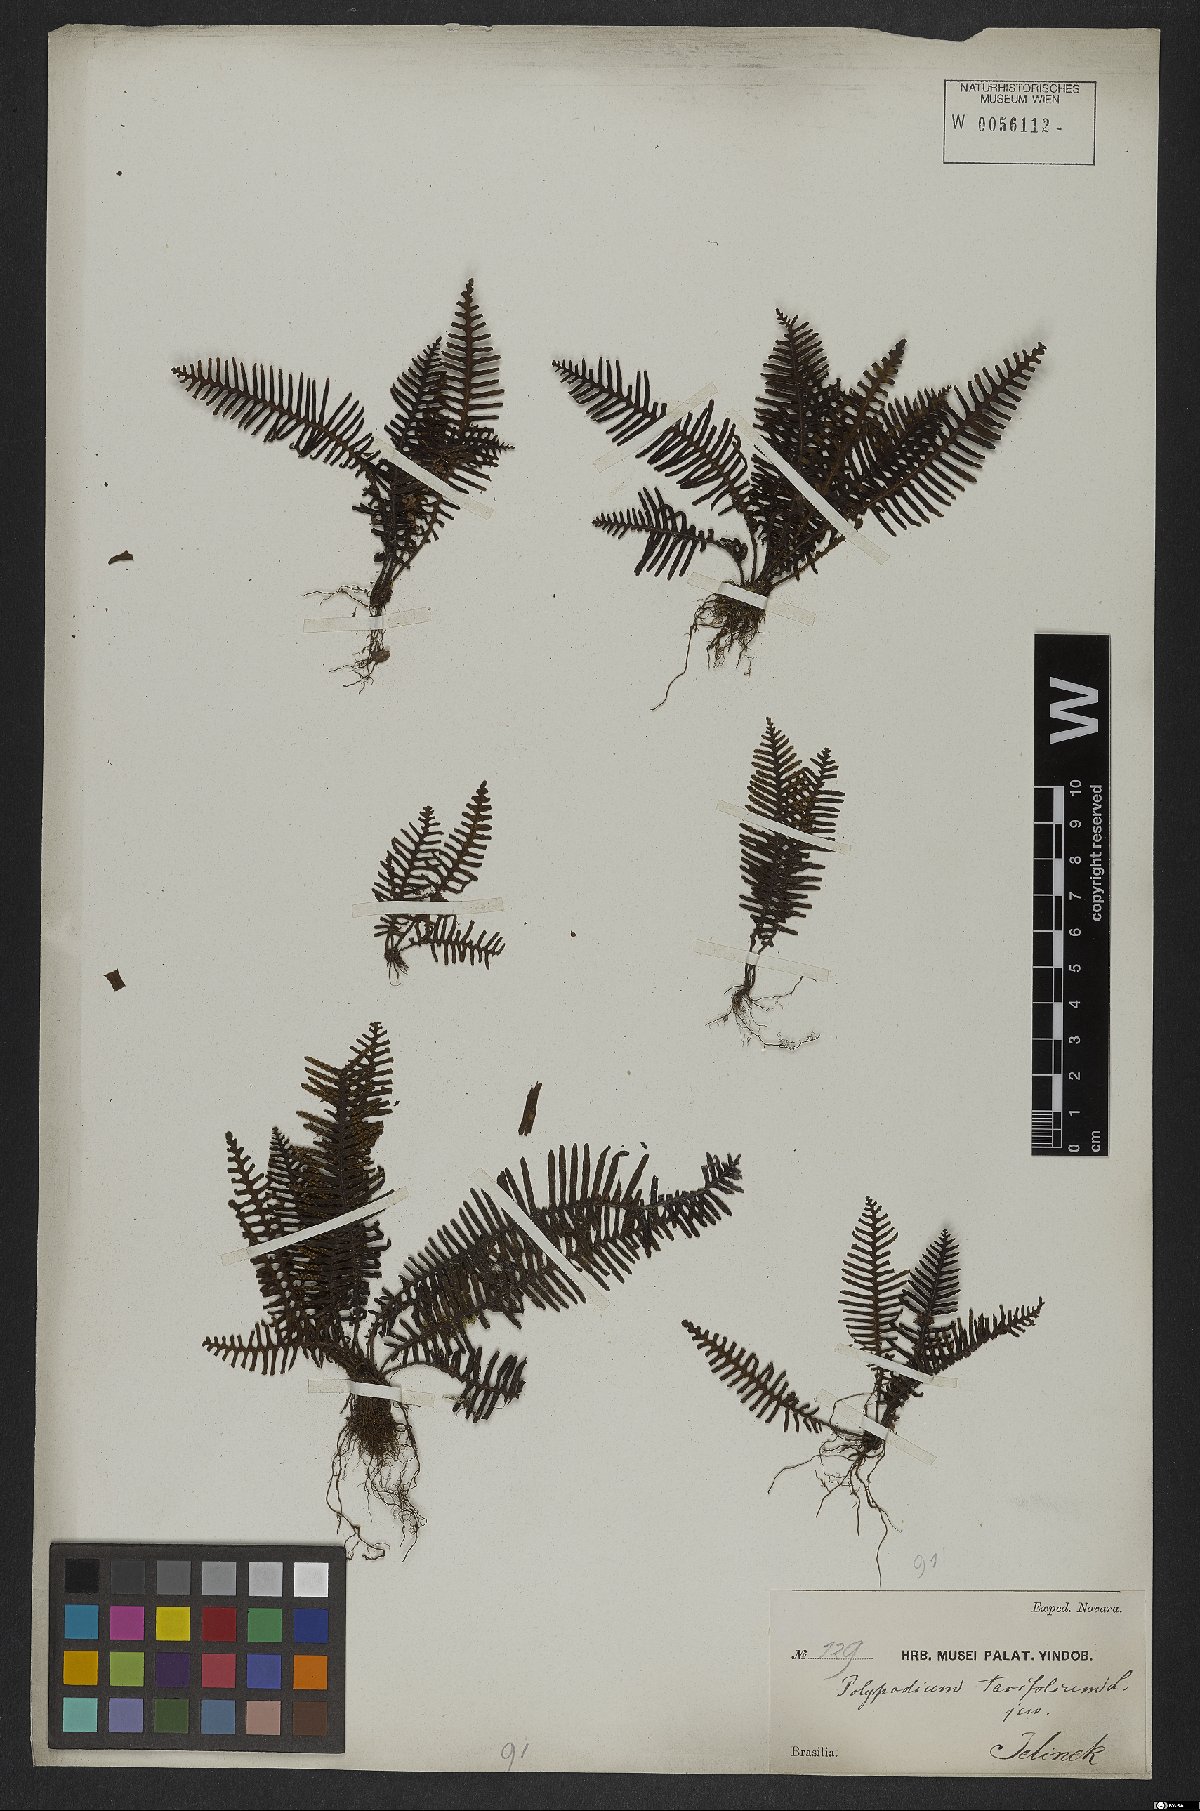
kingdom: Plantae
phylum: Tracheophyta
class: Polypodiopsida
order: Polypodiales
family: Polypodiaceae
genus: Pecluma
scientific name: Pecluma plumula
